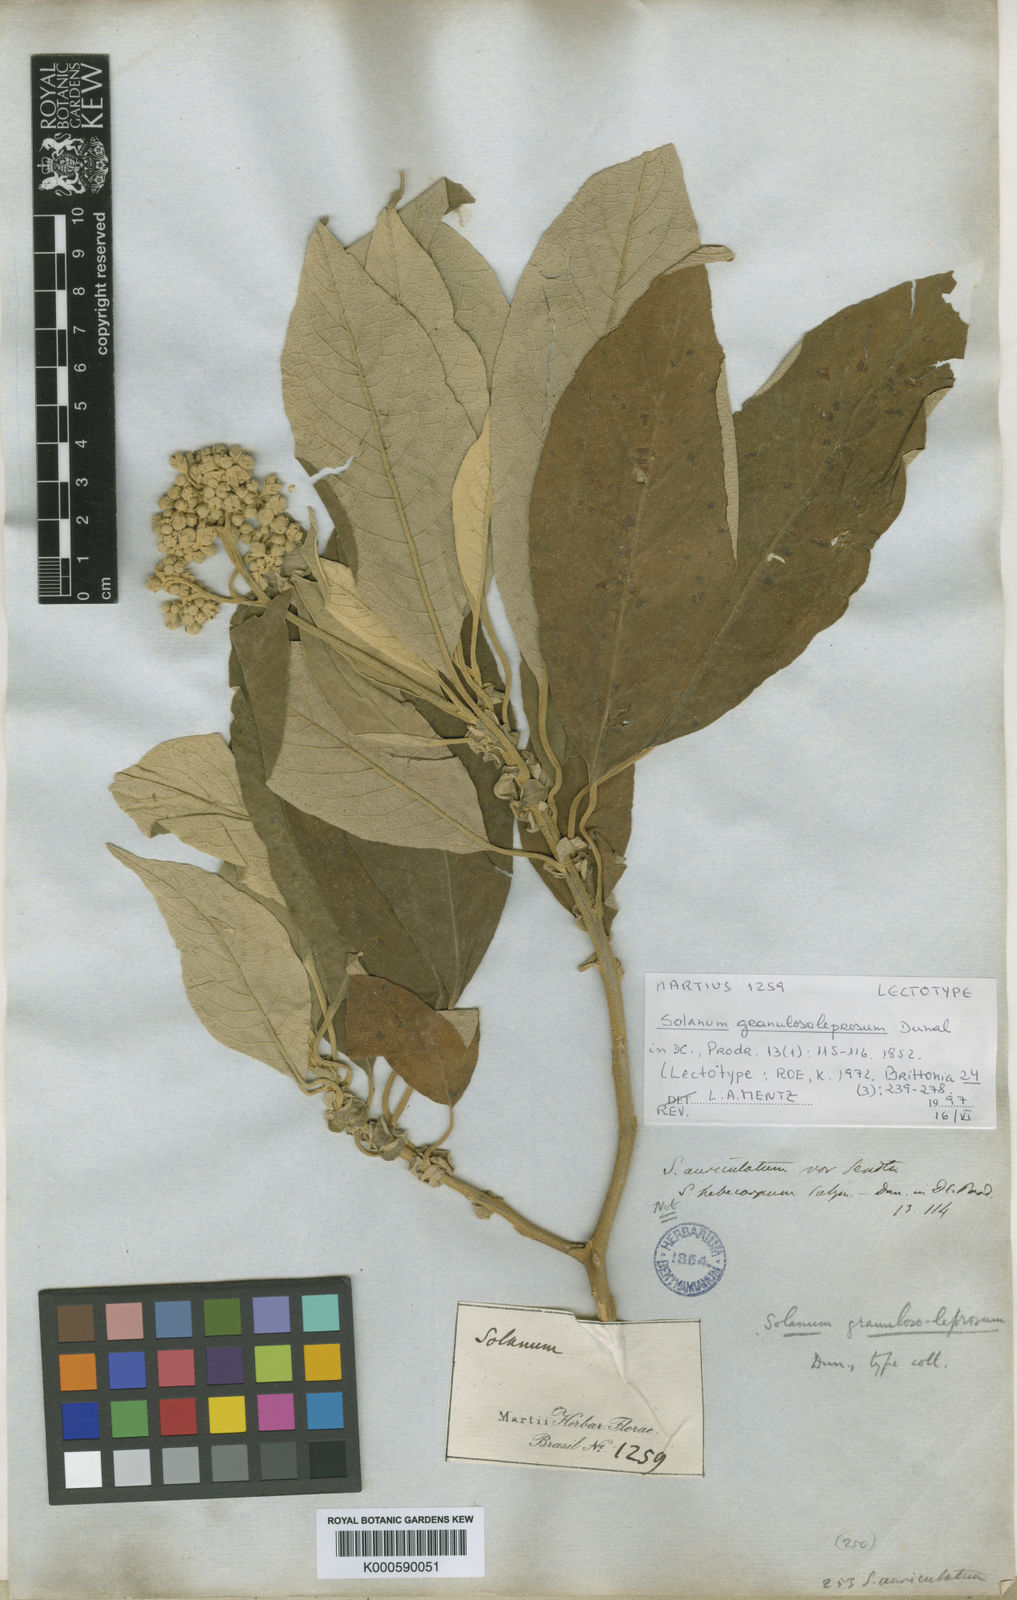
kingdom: Plantae
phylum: Tracheophyta
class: Magnoliopsida
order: Solanales
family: Solanaceae
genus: Solanum
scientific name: Solanum granulosoleprosum
